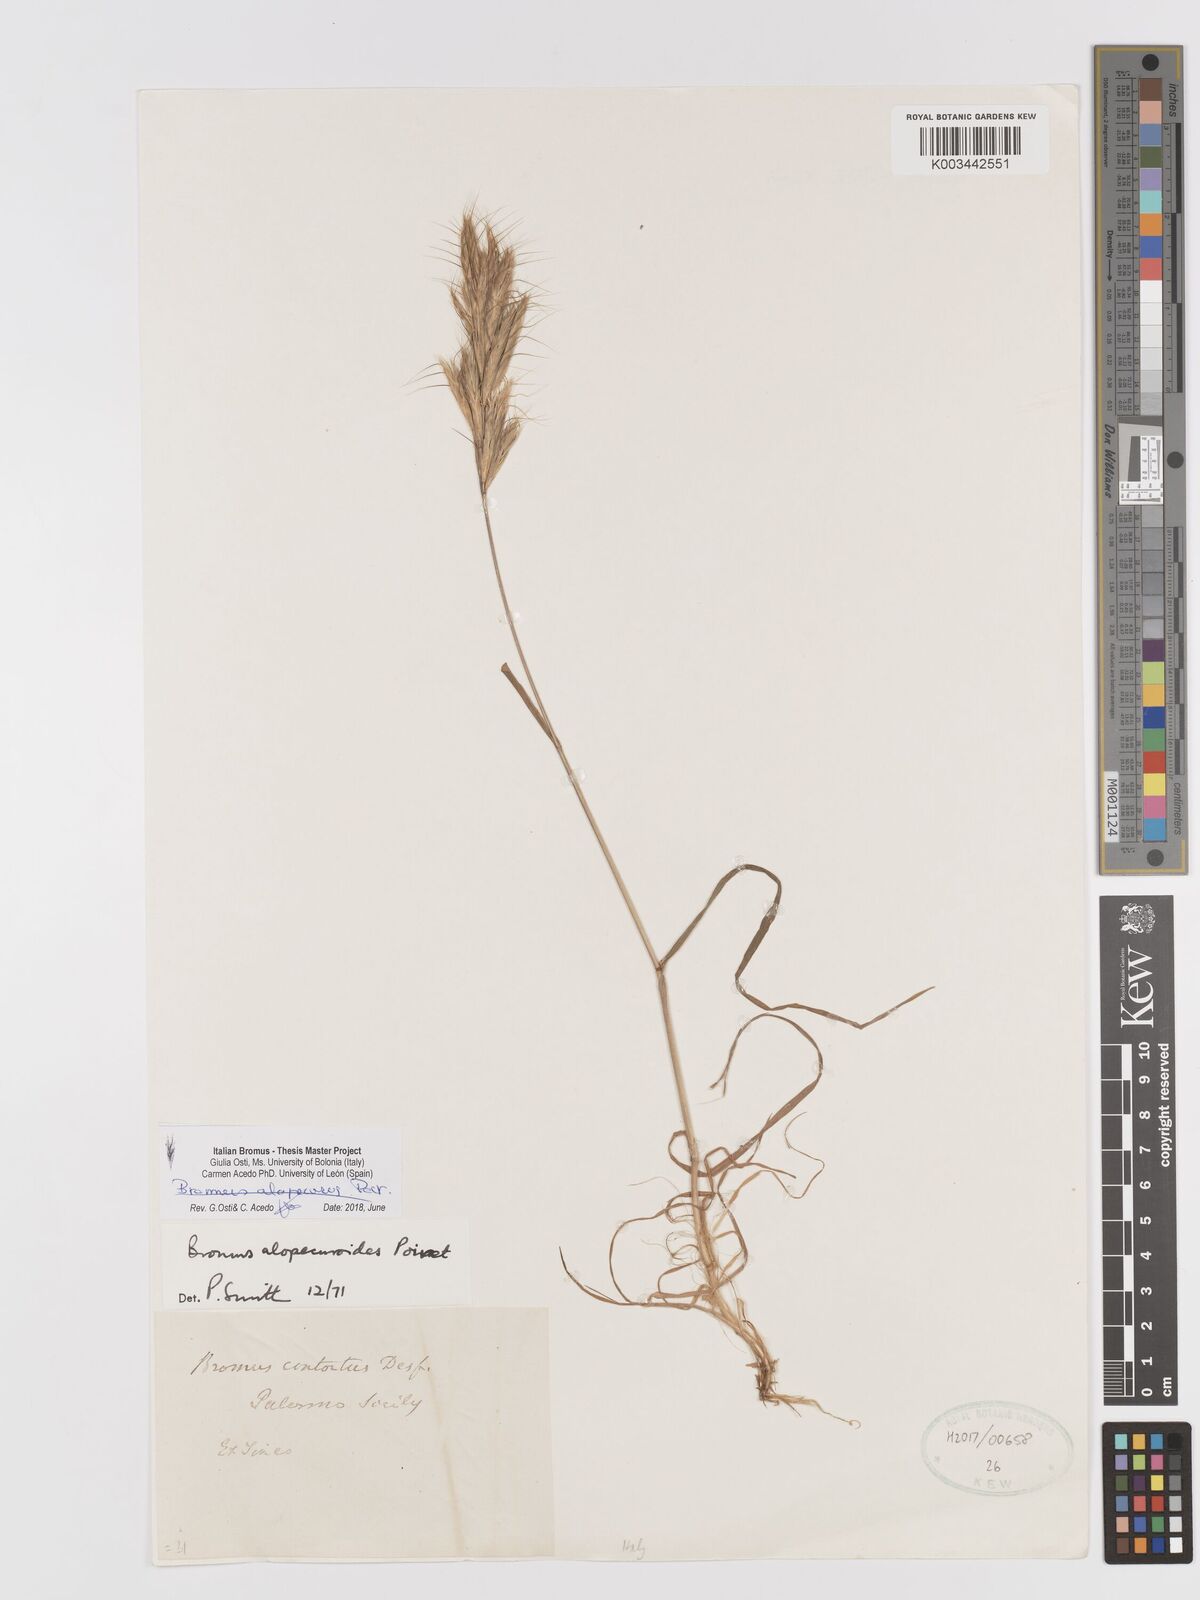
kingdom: Plantae
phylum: Tracheophyta
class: Liliopsida
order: Poales
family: Poaceae
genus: Bromus
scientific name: Bromus alopecuros
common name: Weedy brome
